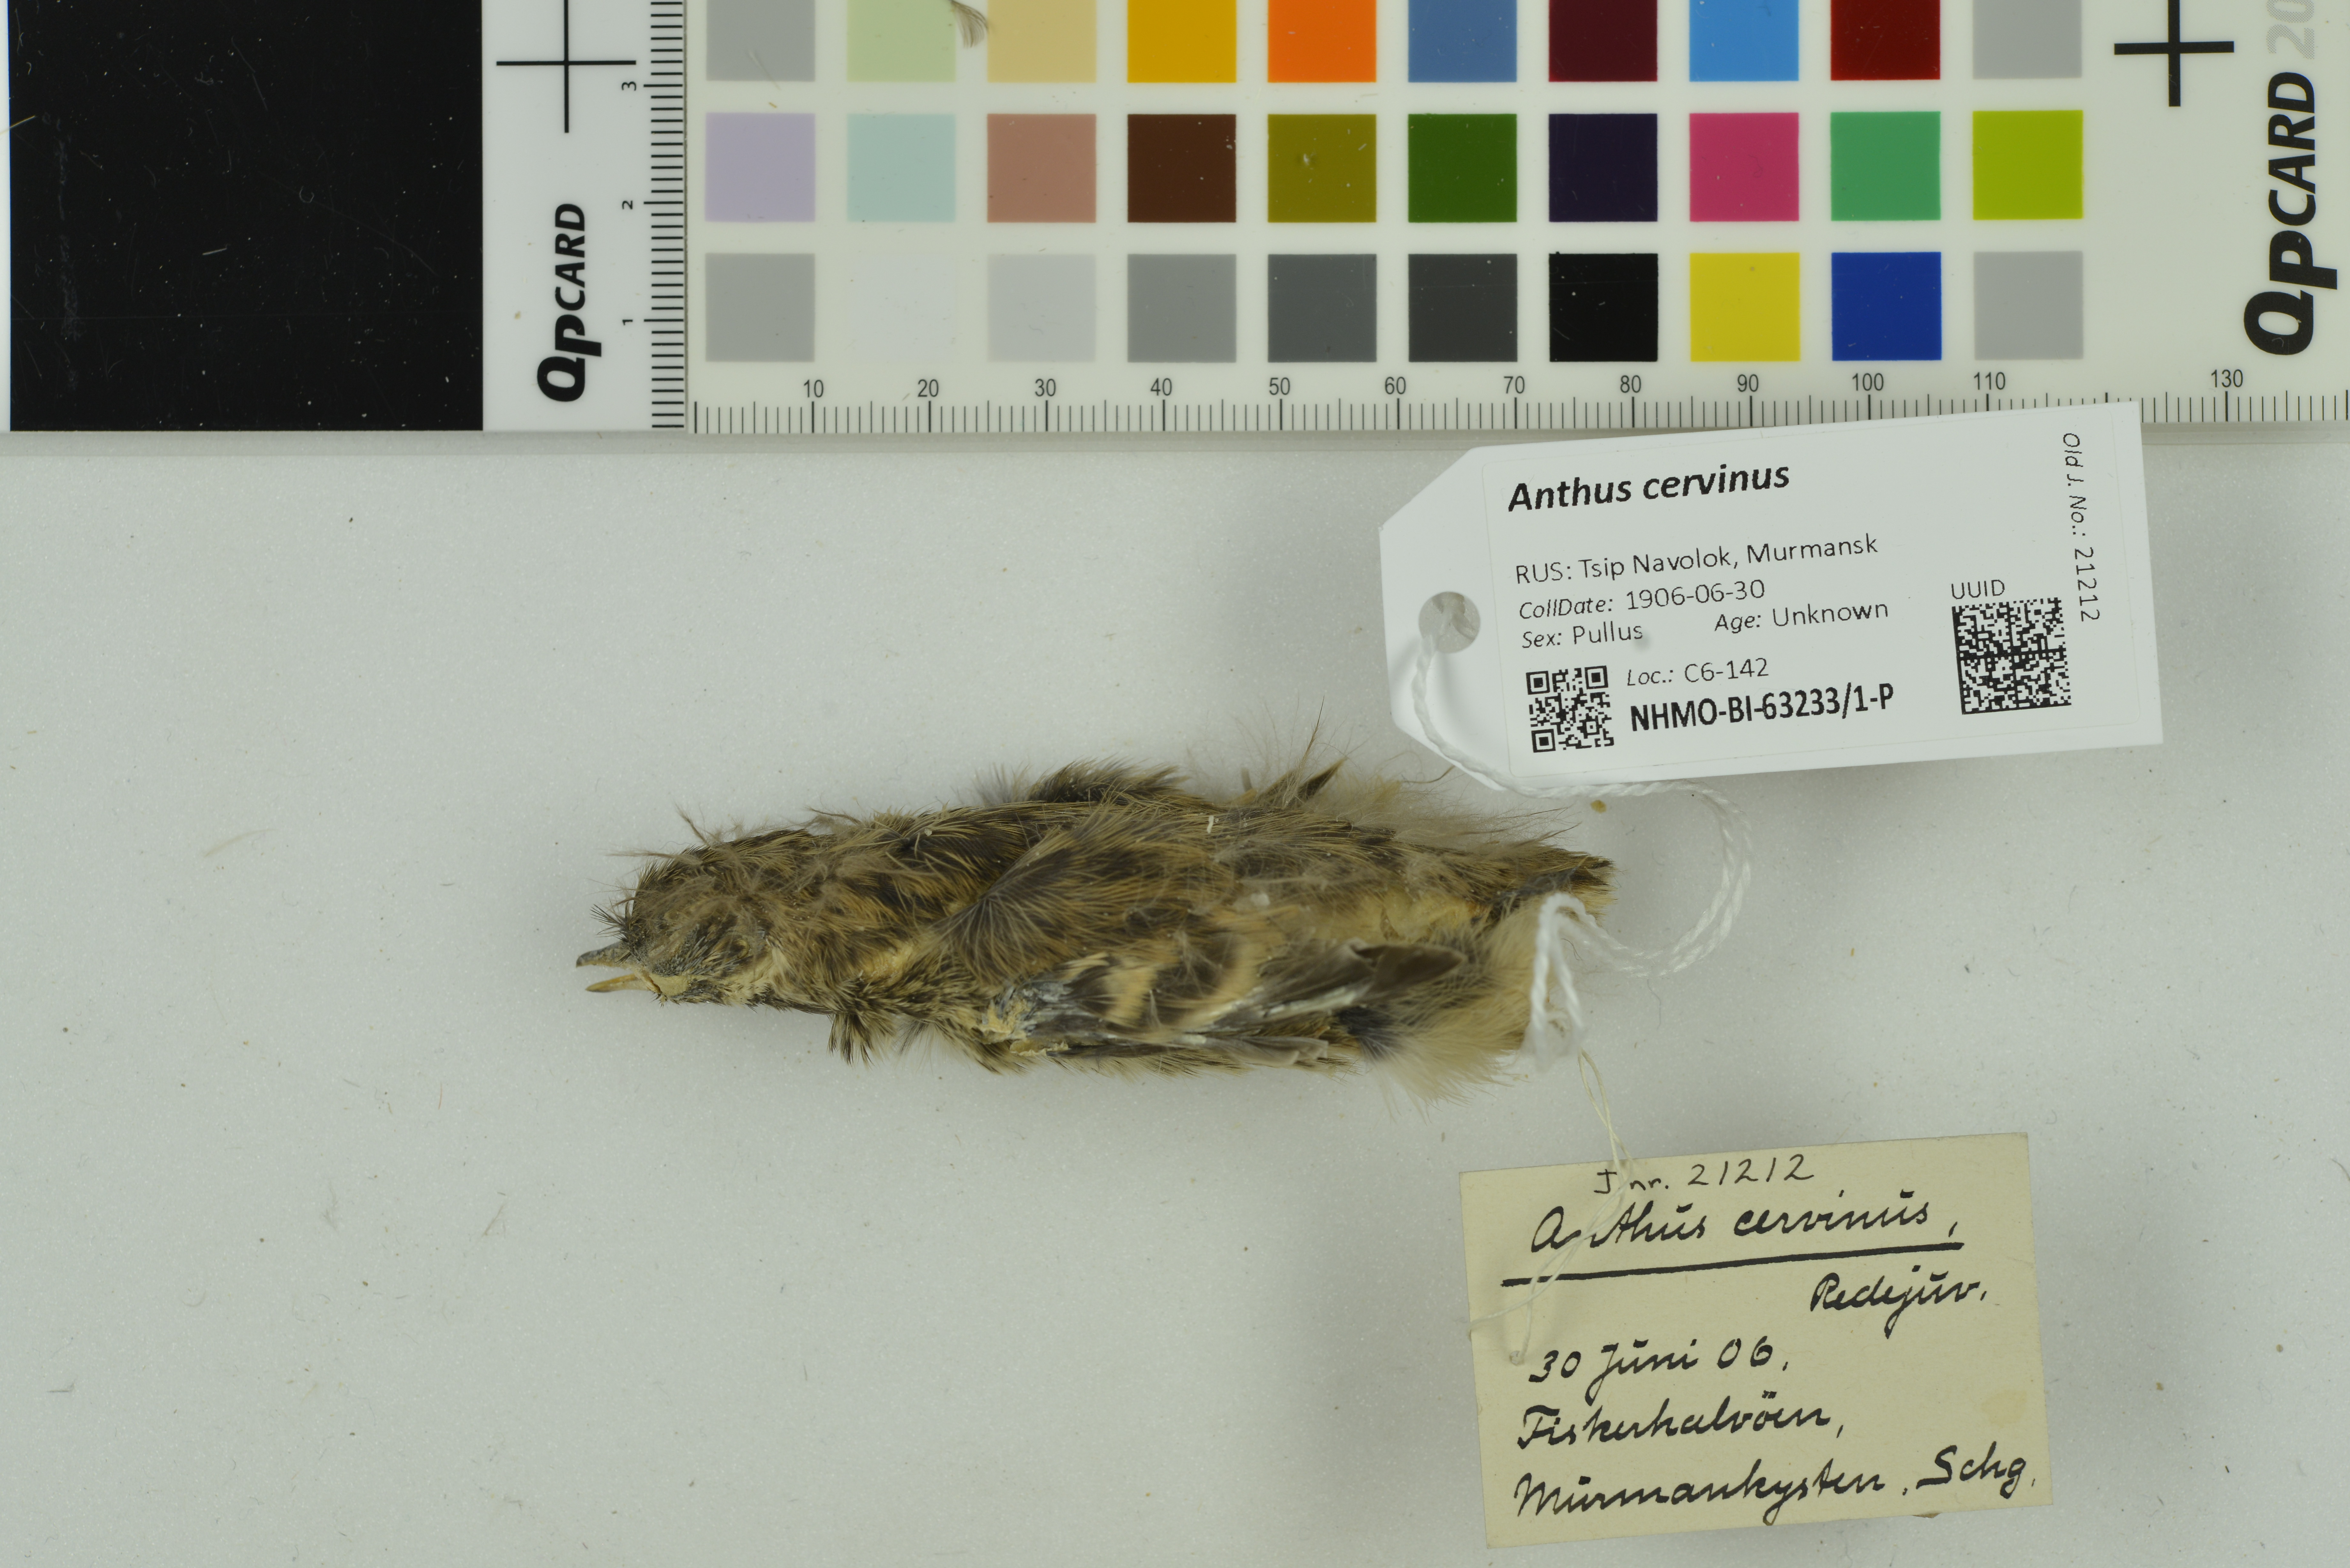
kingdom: Animalia
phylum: Chordata
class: Aves
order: Passeriformes
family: Motacillidae
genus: Anthus
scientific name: Anthus cervinus
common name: Red-throated pipit
